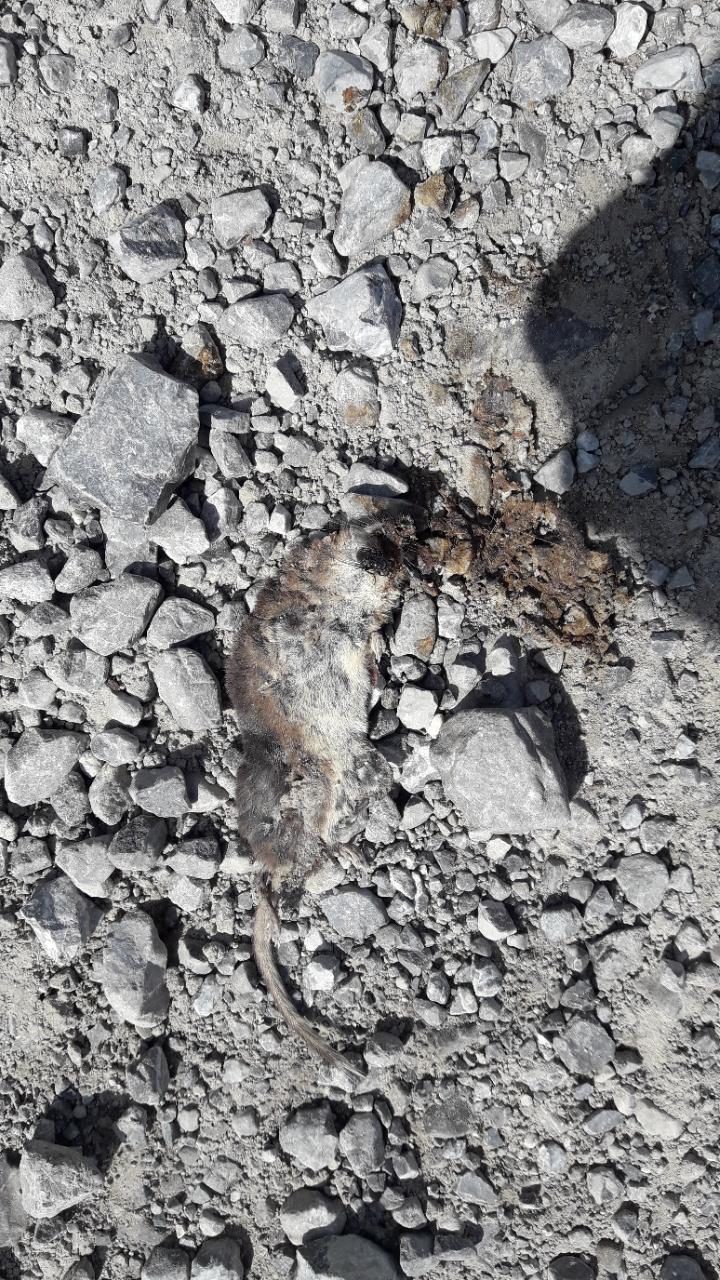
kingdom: Animalia
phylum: Chordata
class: Mammalia
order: Soricomorpha
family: Soricidae
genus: Sorex
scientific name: Sorex araneus
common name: Common shrew
